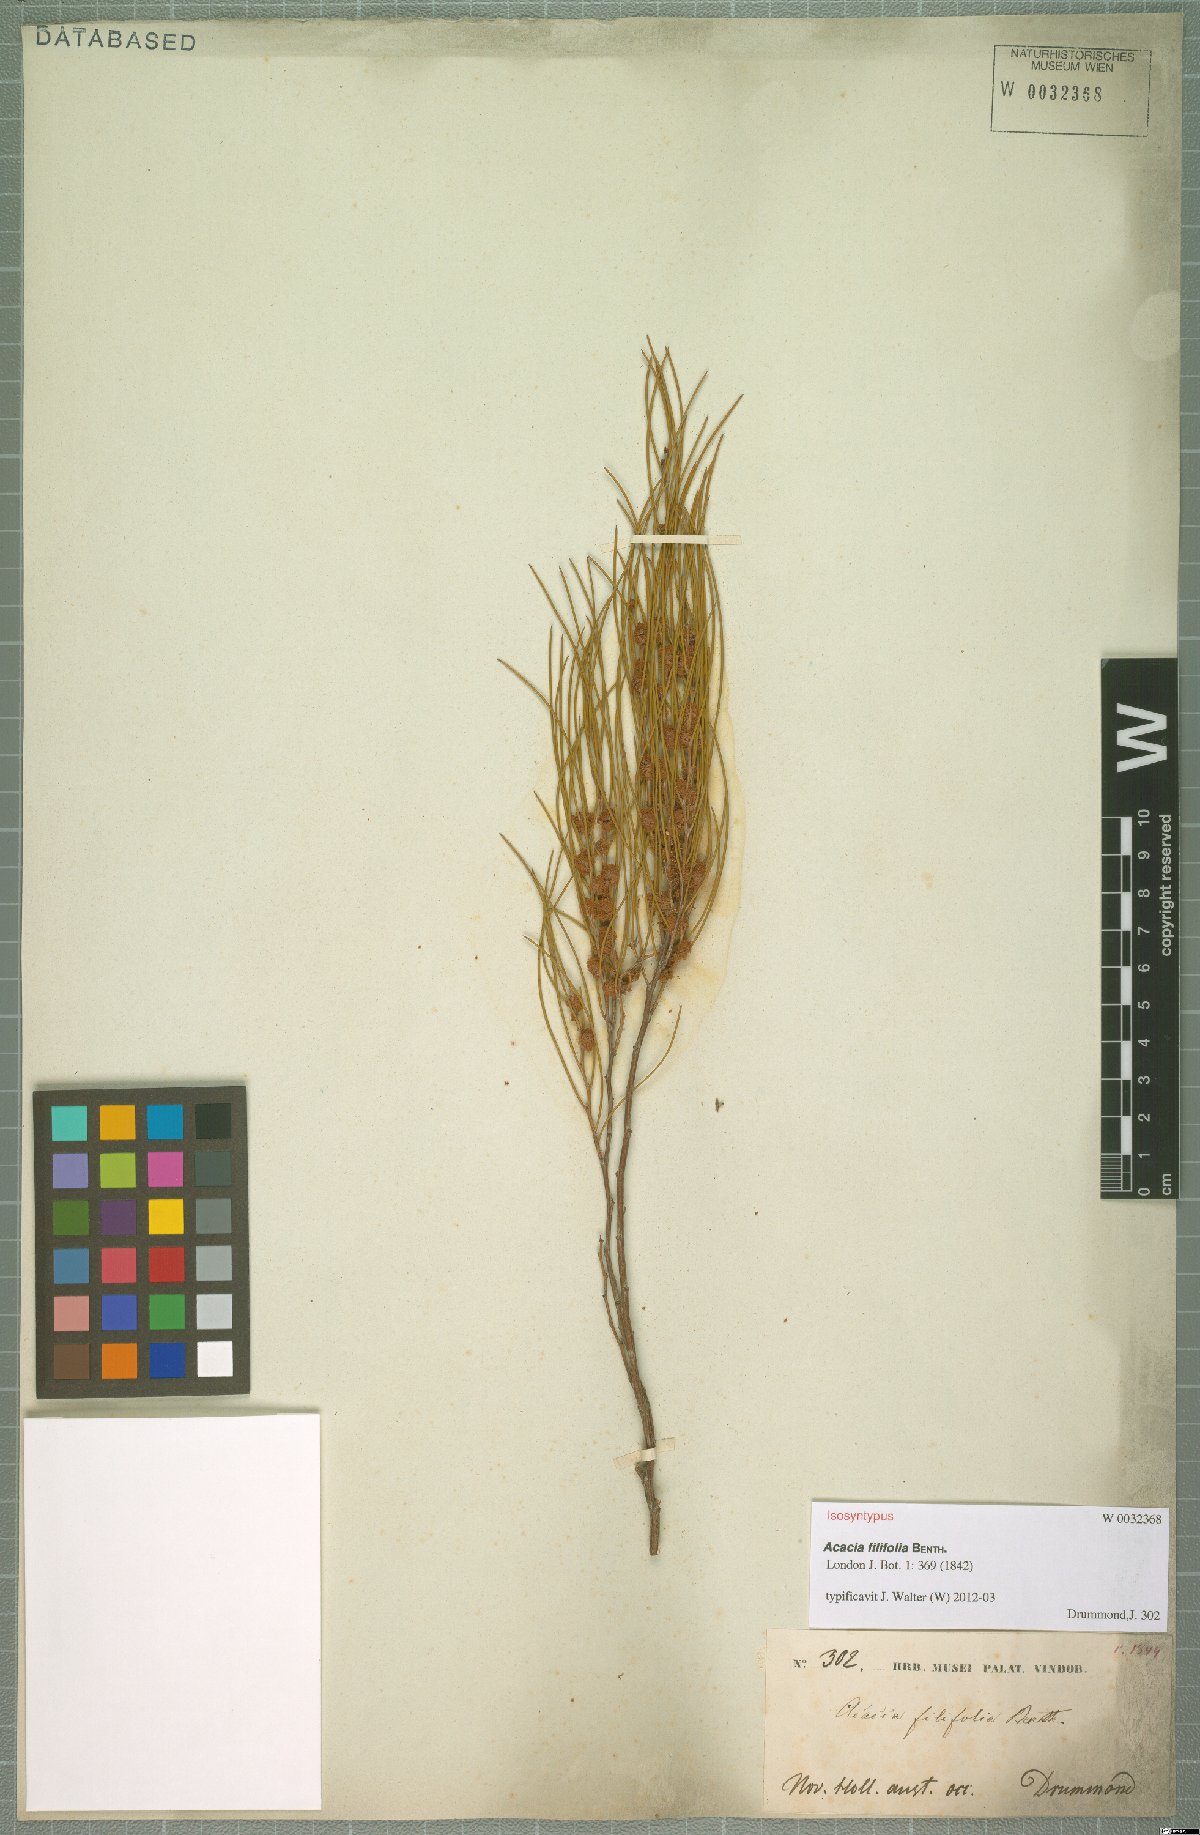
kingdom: Plantae
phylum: Tracheophyta
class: Magnoliopsida
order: Fabales
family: Fabaceae
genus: Acacia
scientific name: Acacia filifolia
